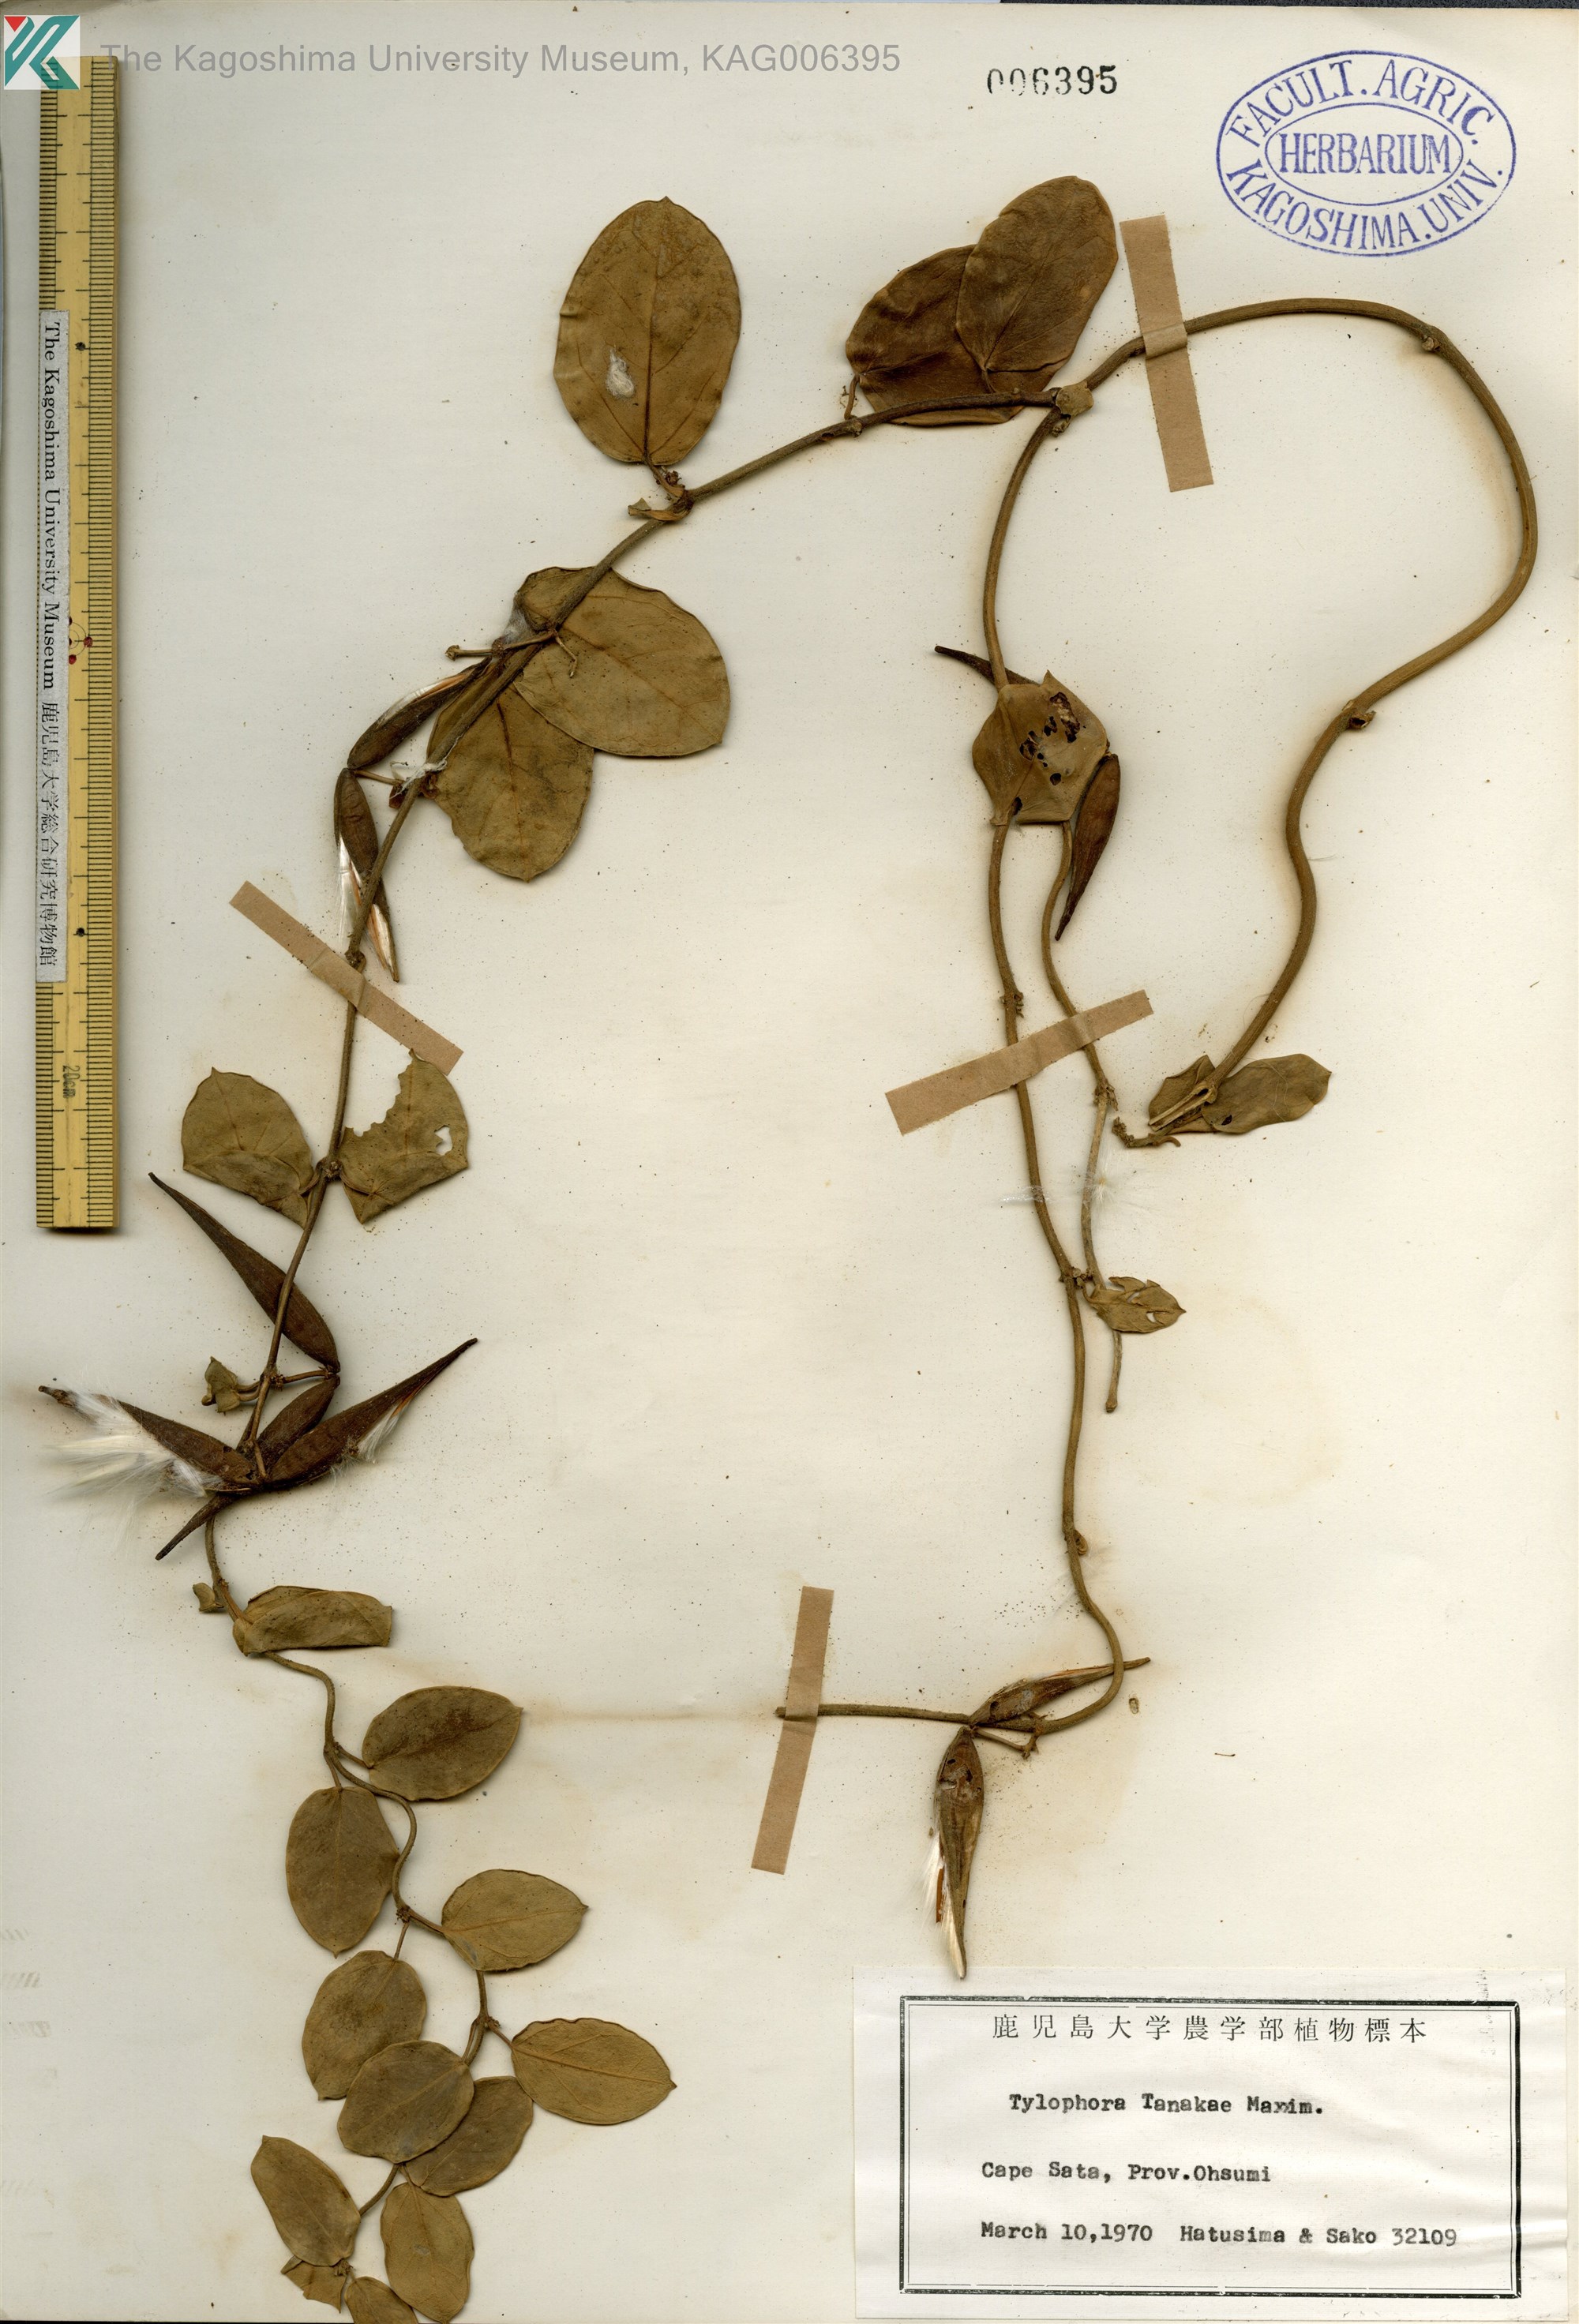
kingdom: Plantae
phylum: Tracheophyta
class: Magnoliopsida
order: Gentianales
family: Apocynaceae
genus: Vincetoxicum
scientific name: Vincetoxicum Tylophora tanakae
